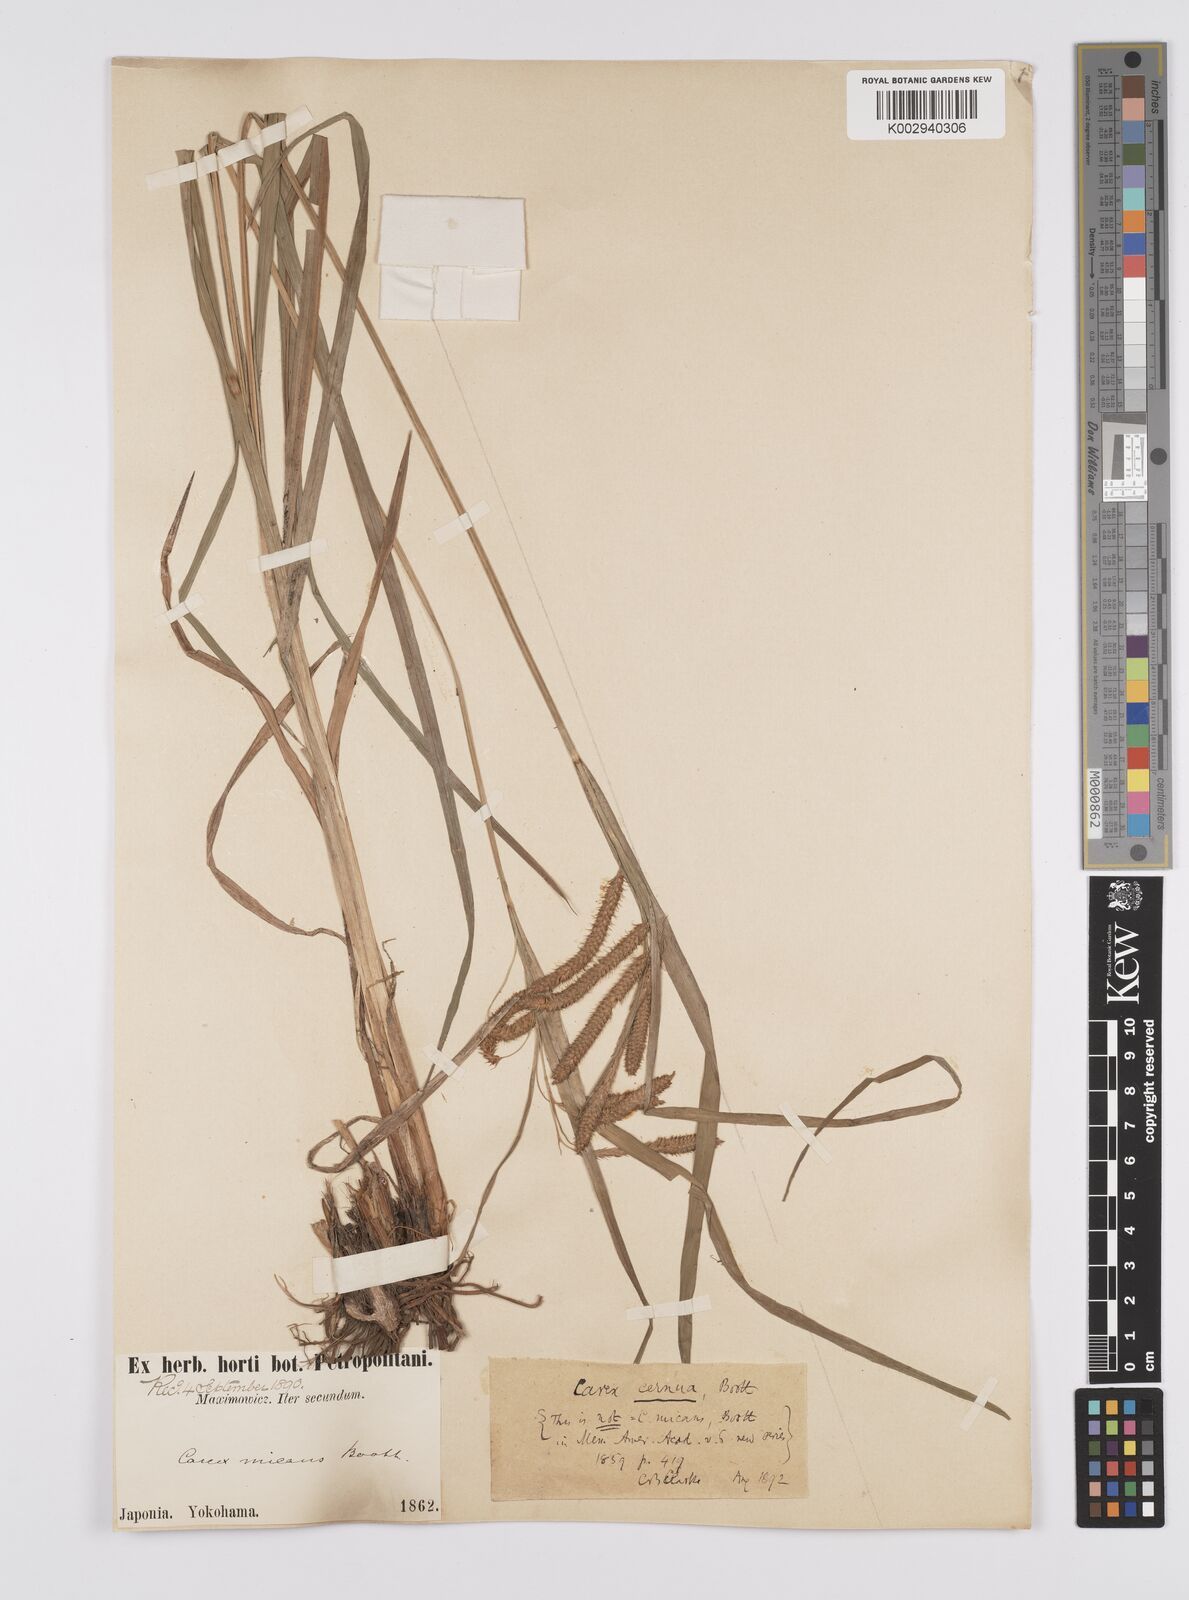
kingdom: Plantae
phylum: Tracheophyta
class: Liliopsida
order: Poales
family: Cyperaceae
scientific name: Cyperaceae
